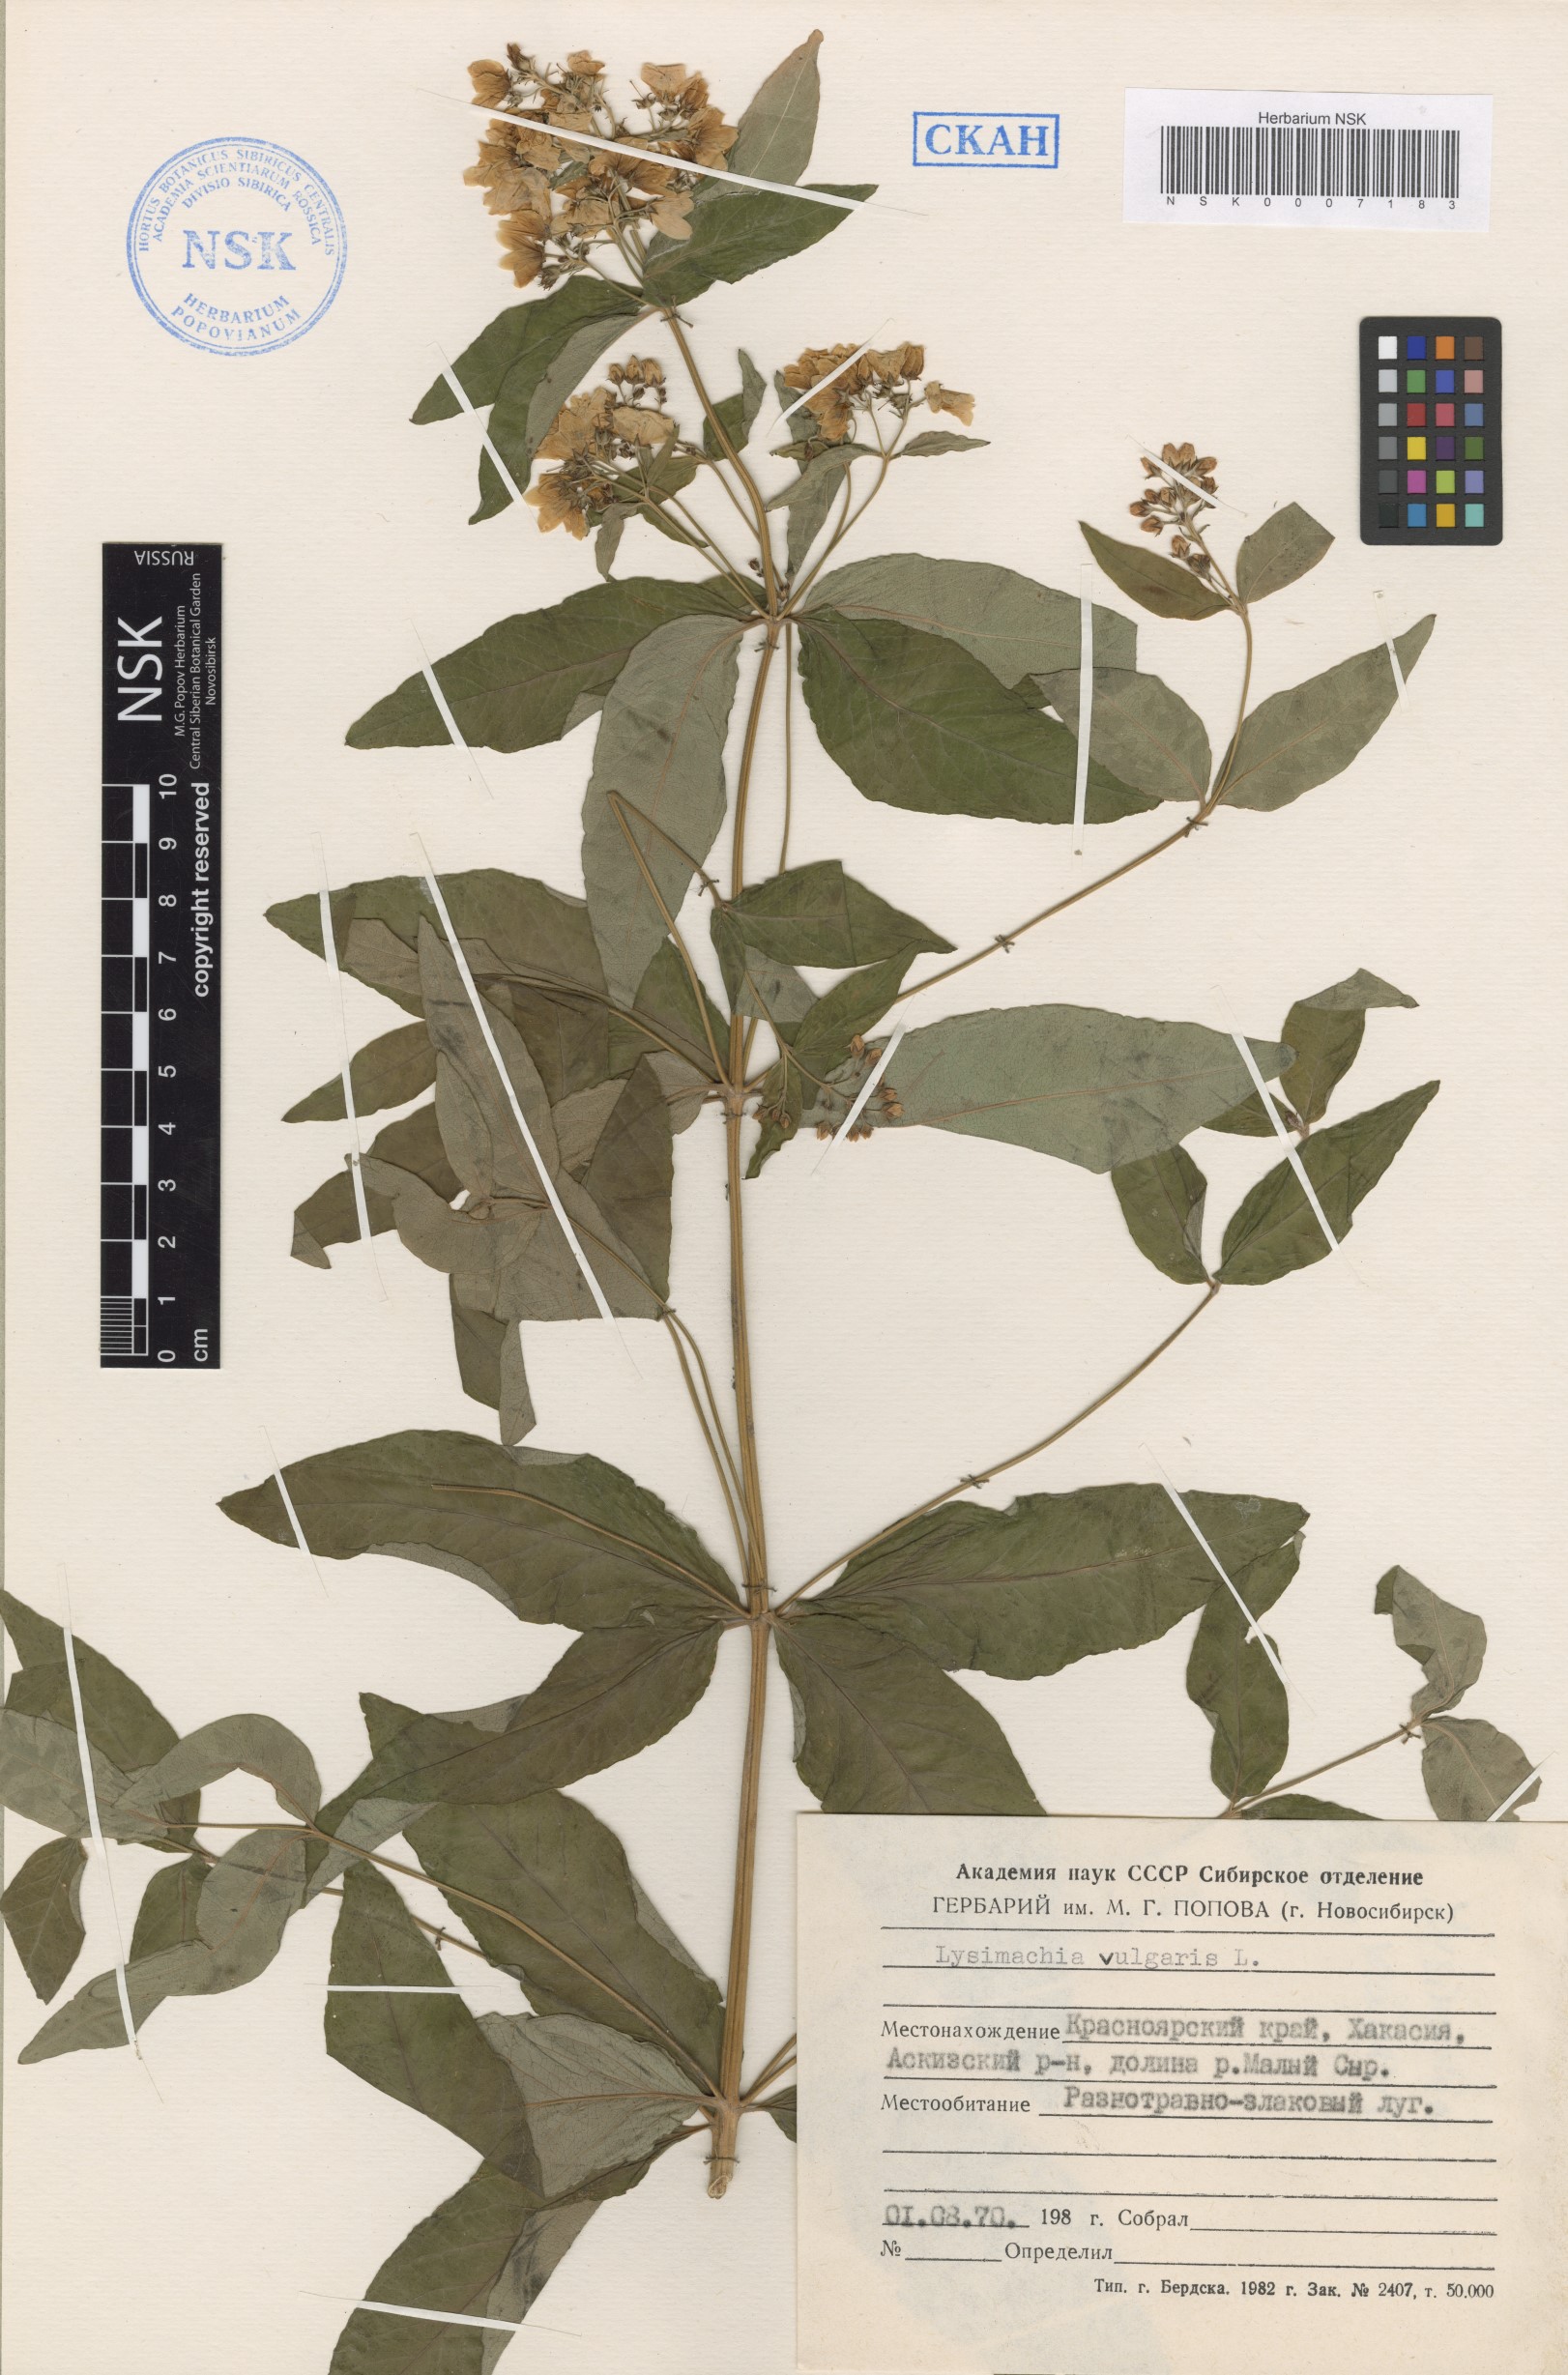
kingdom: Plantae
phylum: Tracheophyta
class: Magnoliopsida
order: Ericales
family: Primulaceae
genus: Lysimachia
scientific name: Lysimachia vulgaris
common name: Yellow loosestrife
